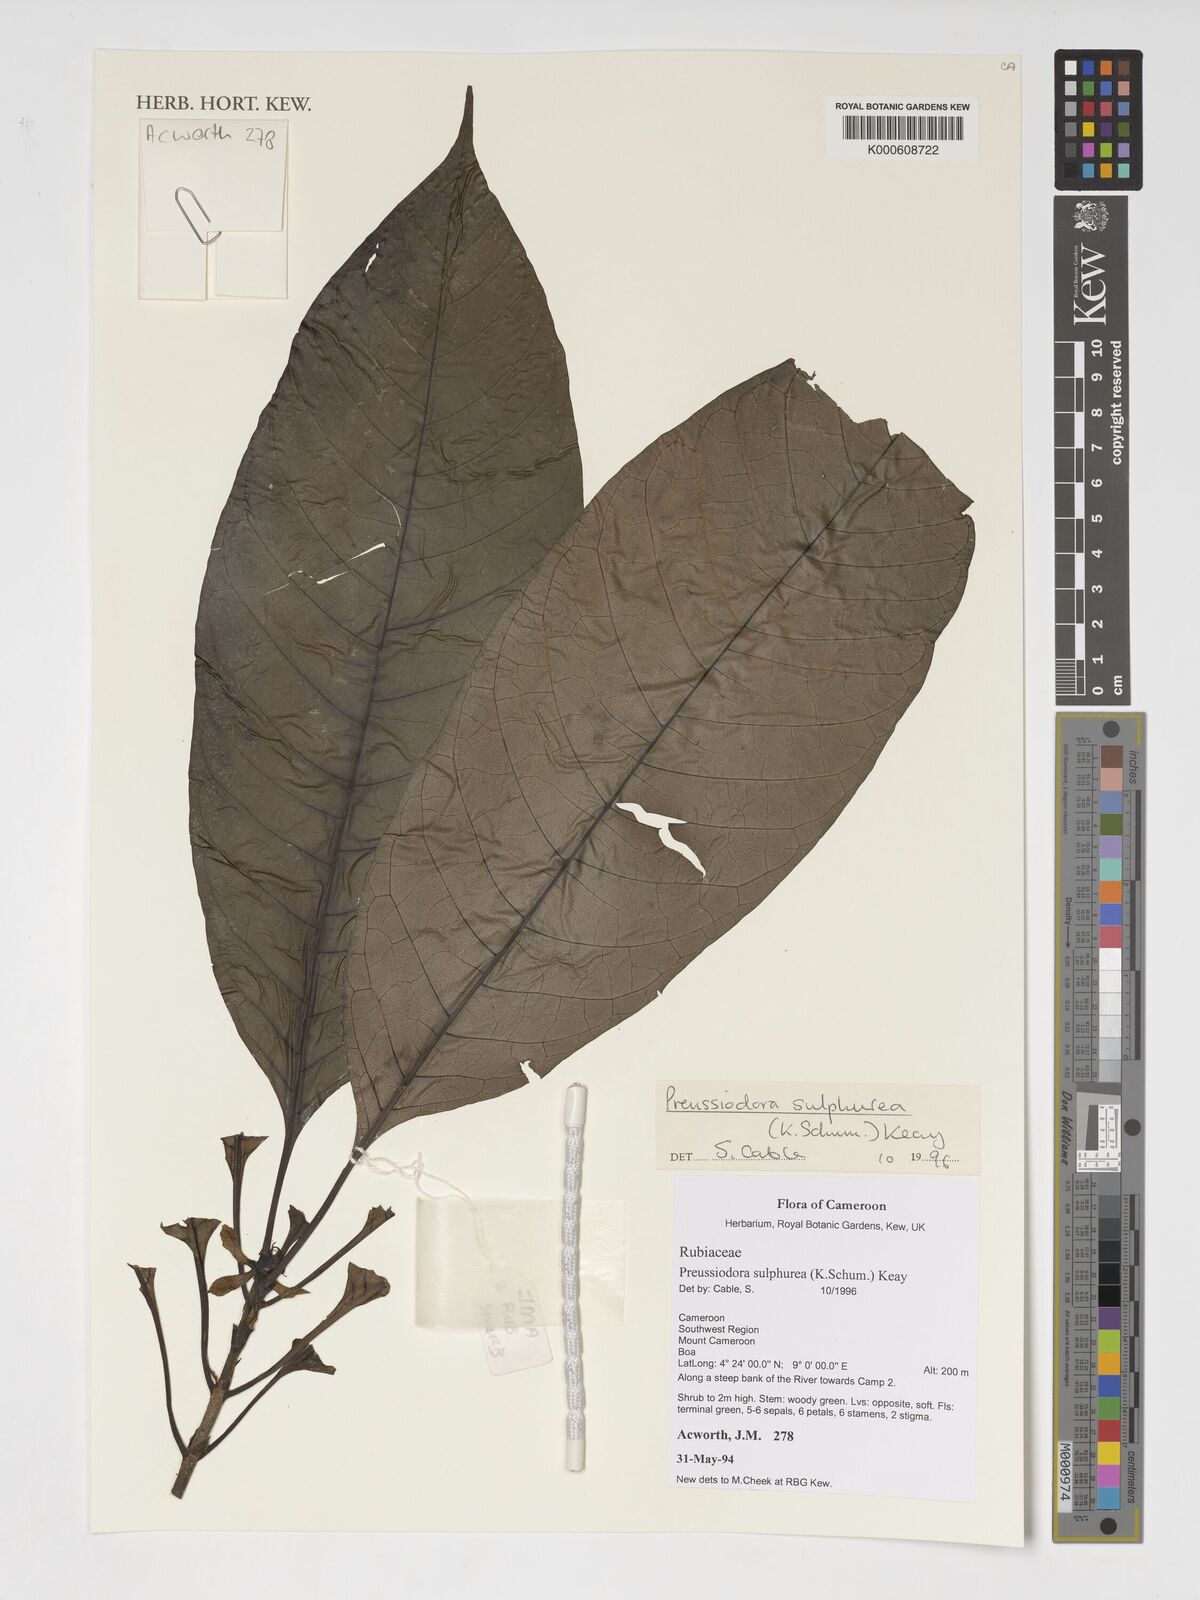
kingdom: Plantae
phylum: Tracheophyta
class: Magnoliopsida
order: Gentianales
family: Rubiaceae
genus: Preussiodora
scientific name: Preussiodora sulphurea
